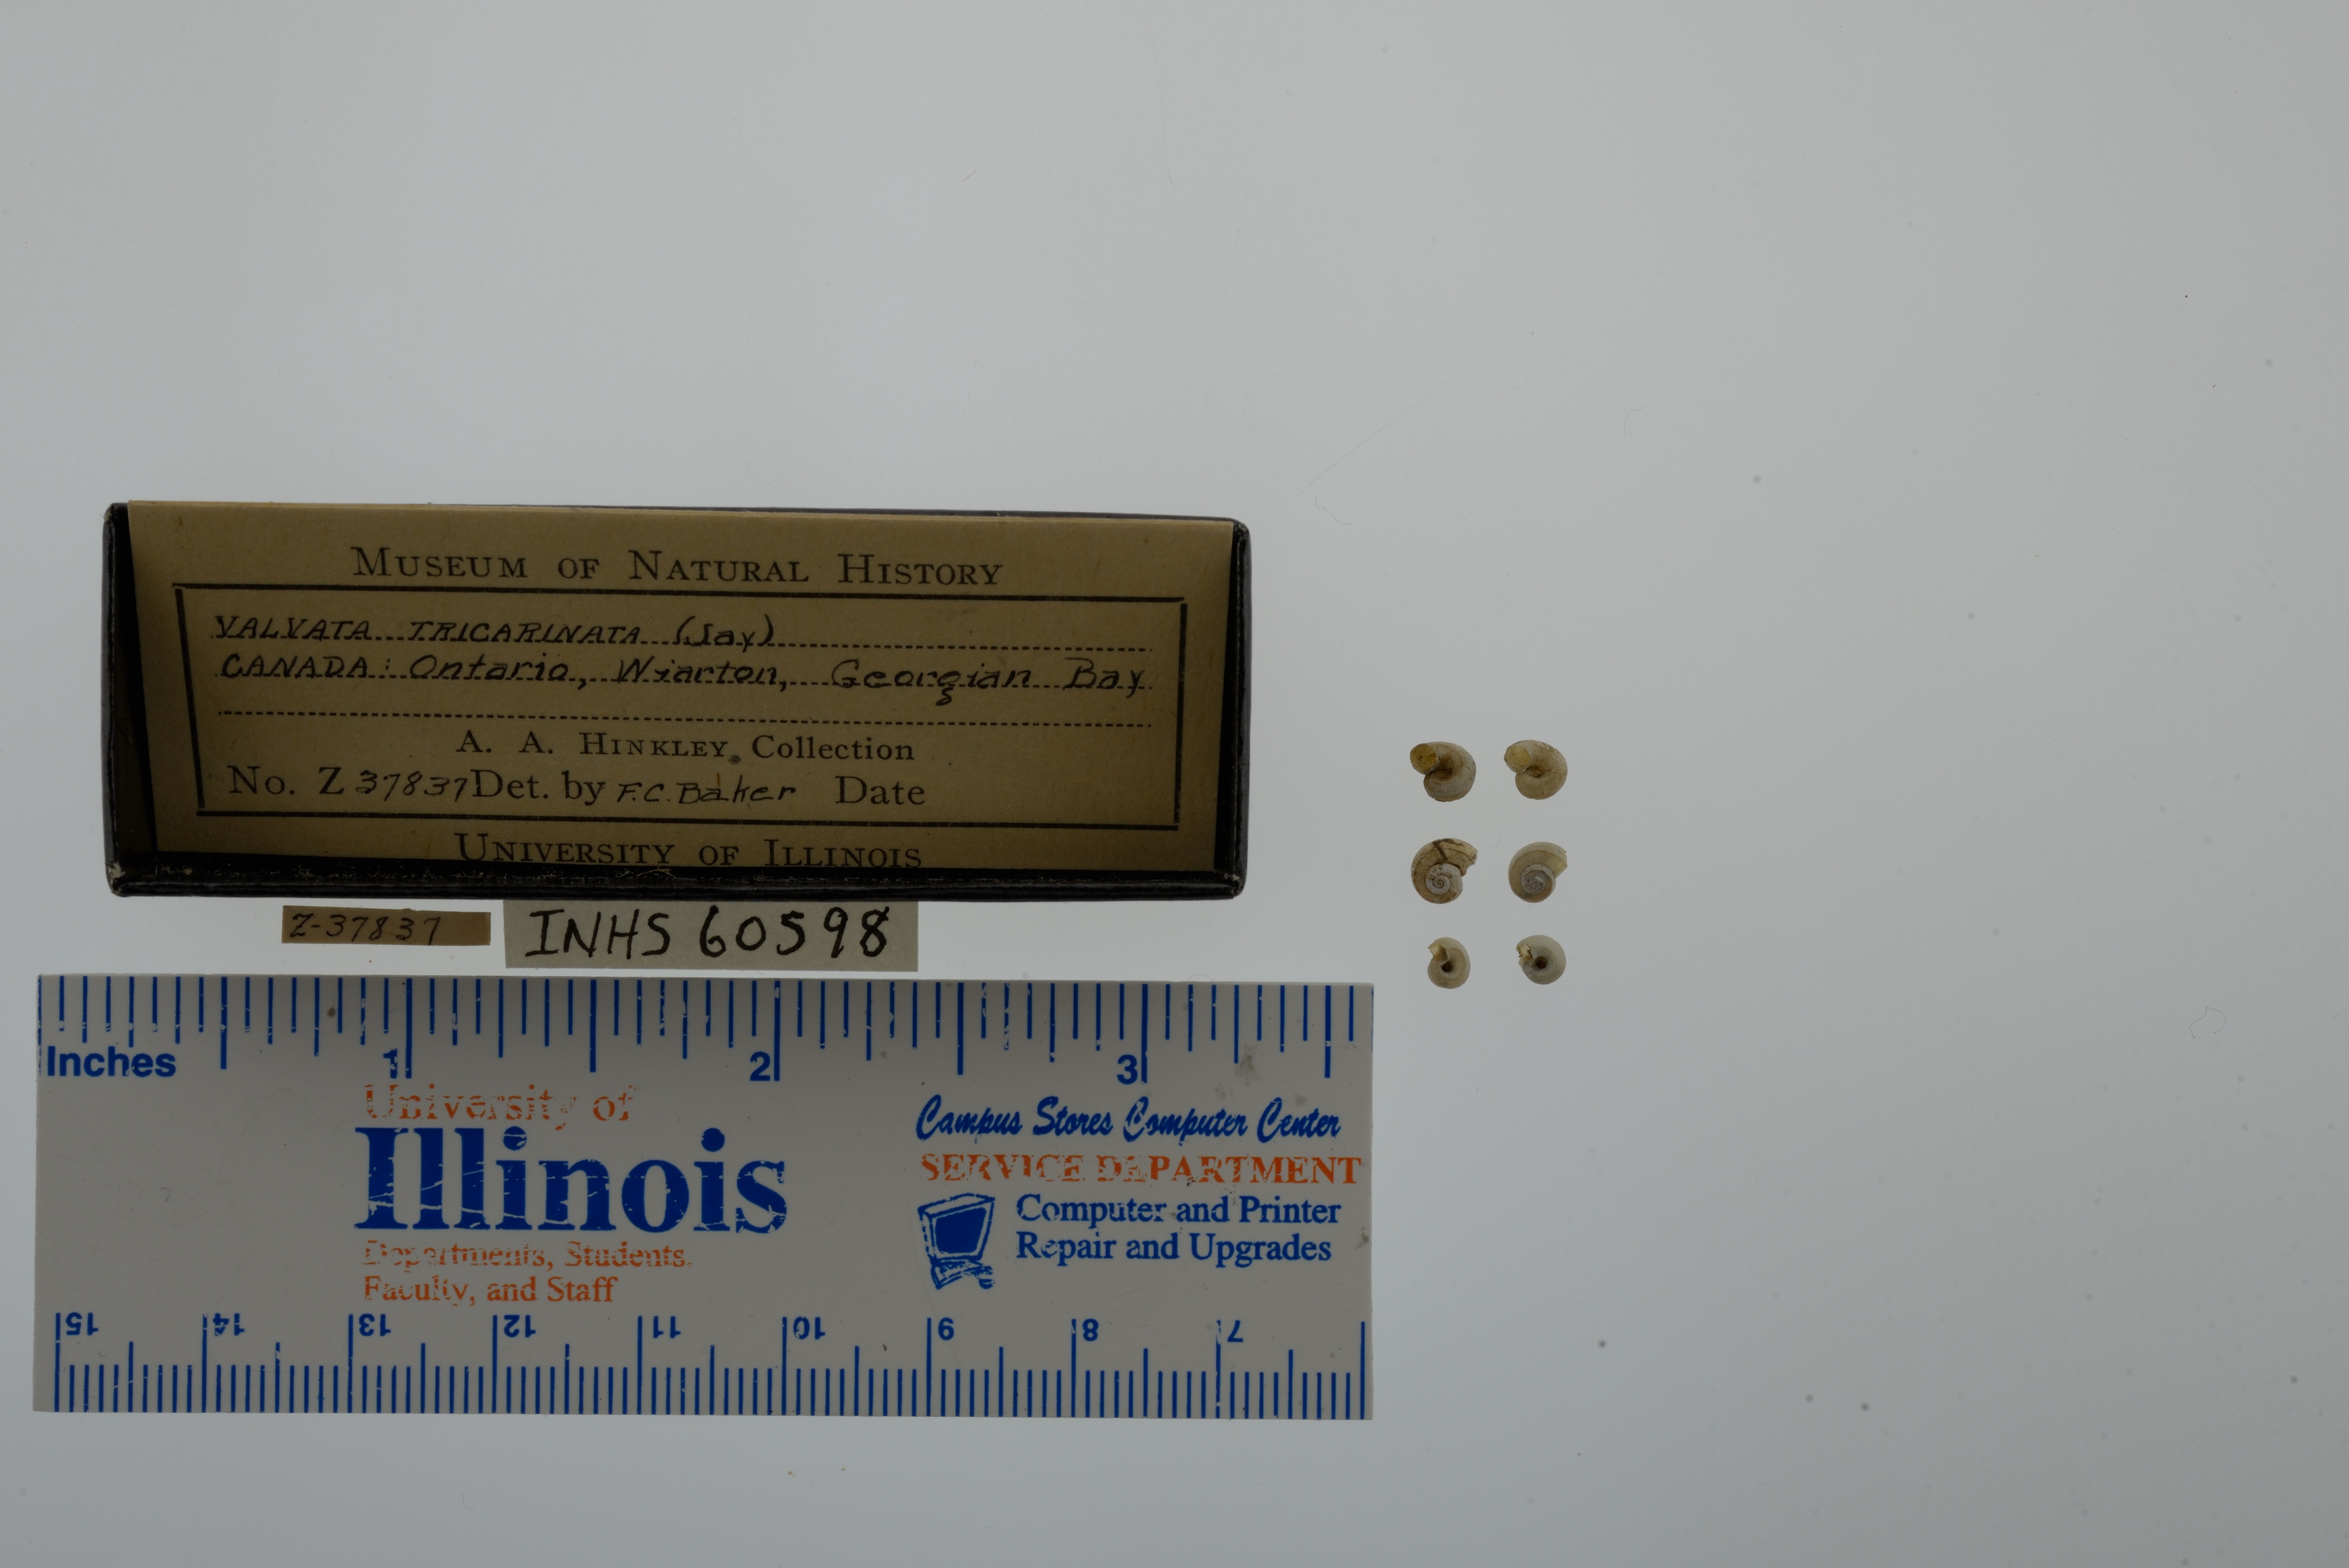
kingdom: Animalia
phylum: Mollusca
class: Gastropoda
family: Valvatidae
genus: Valvata
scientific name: Valvata tricarinata
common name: Three-ridge valvata
